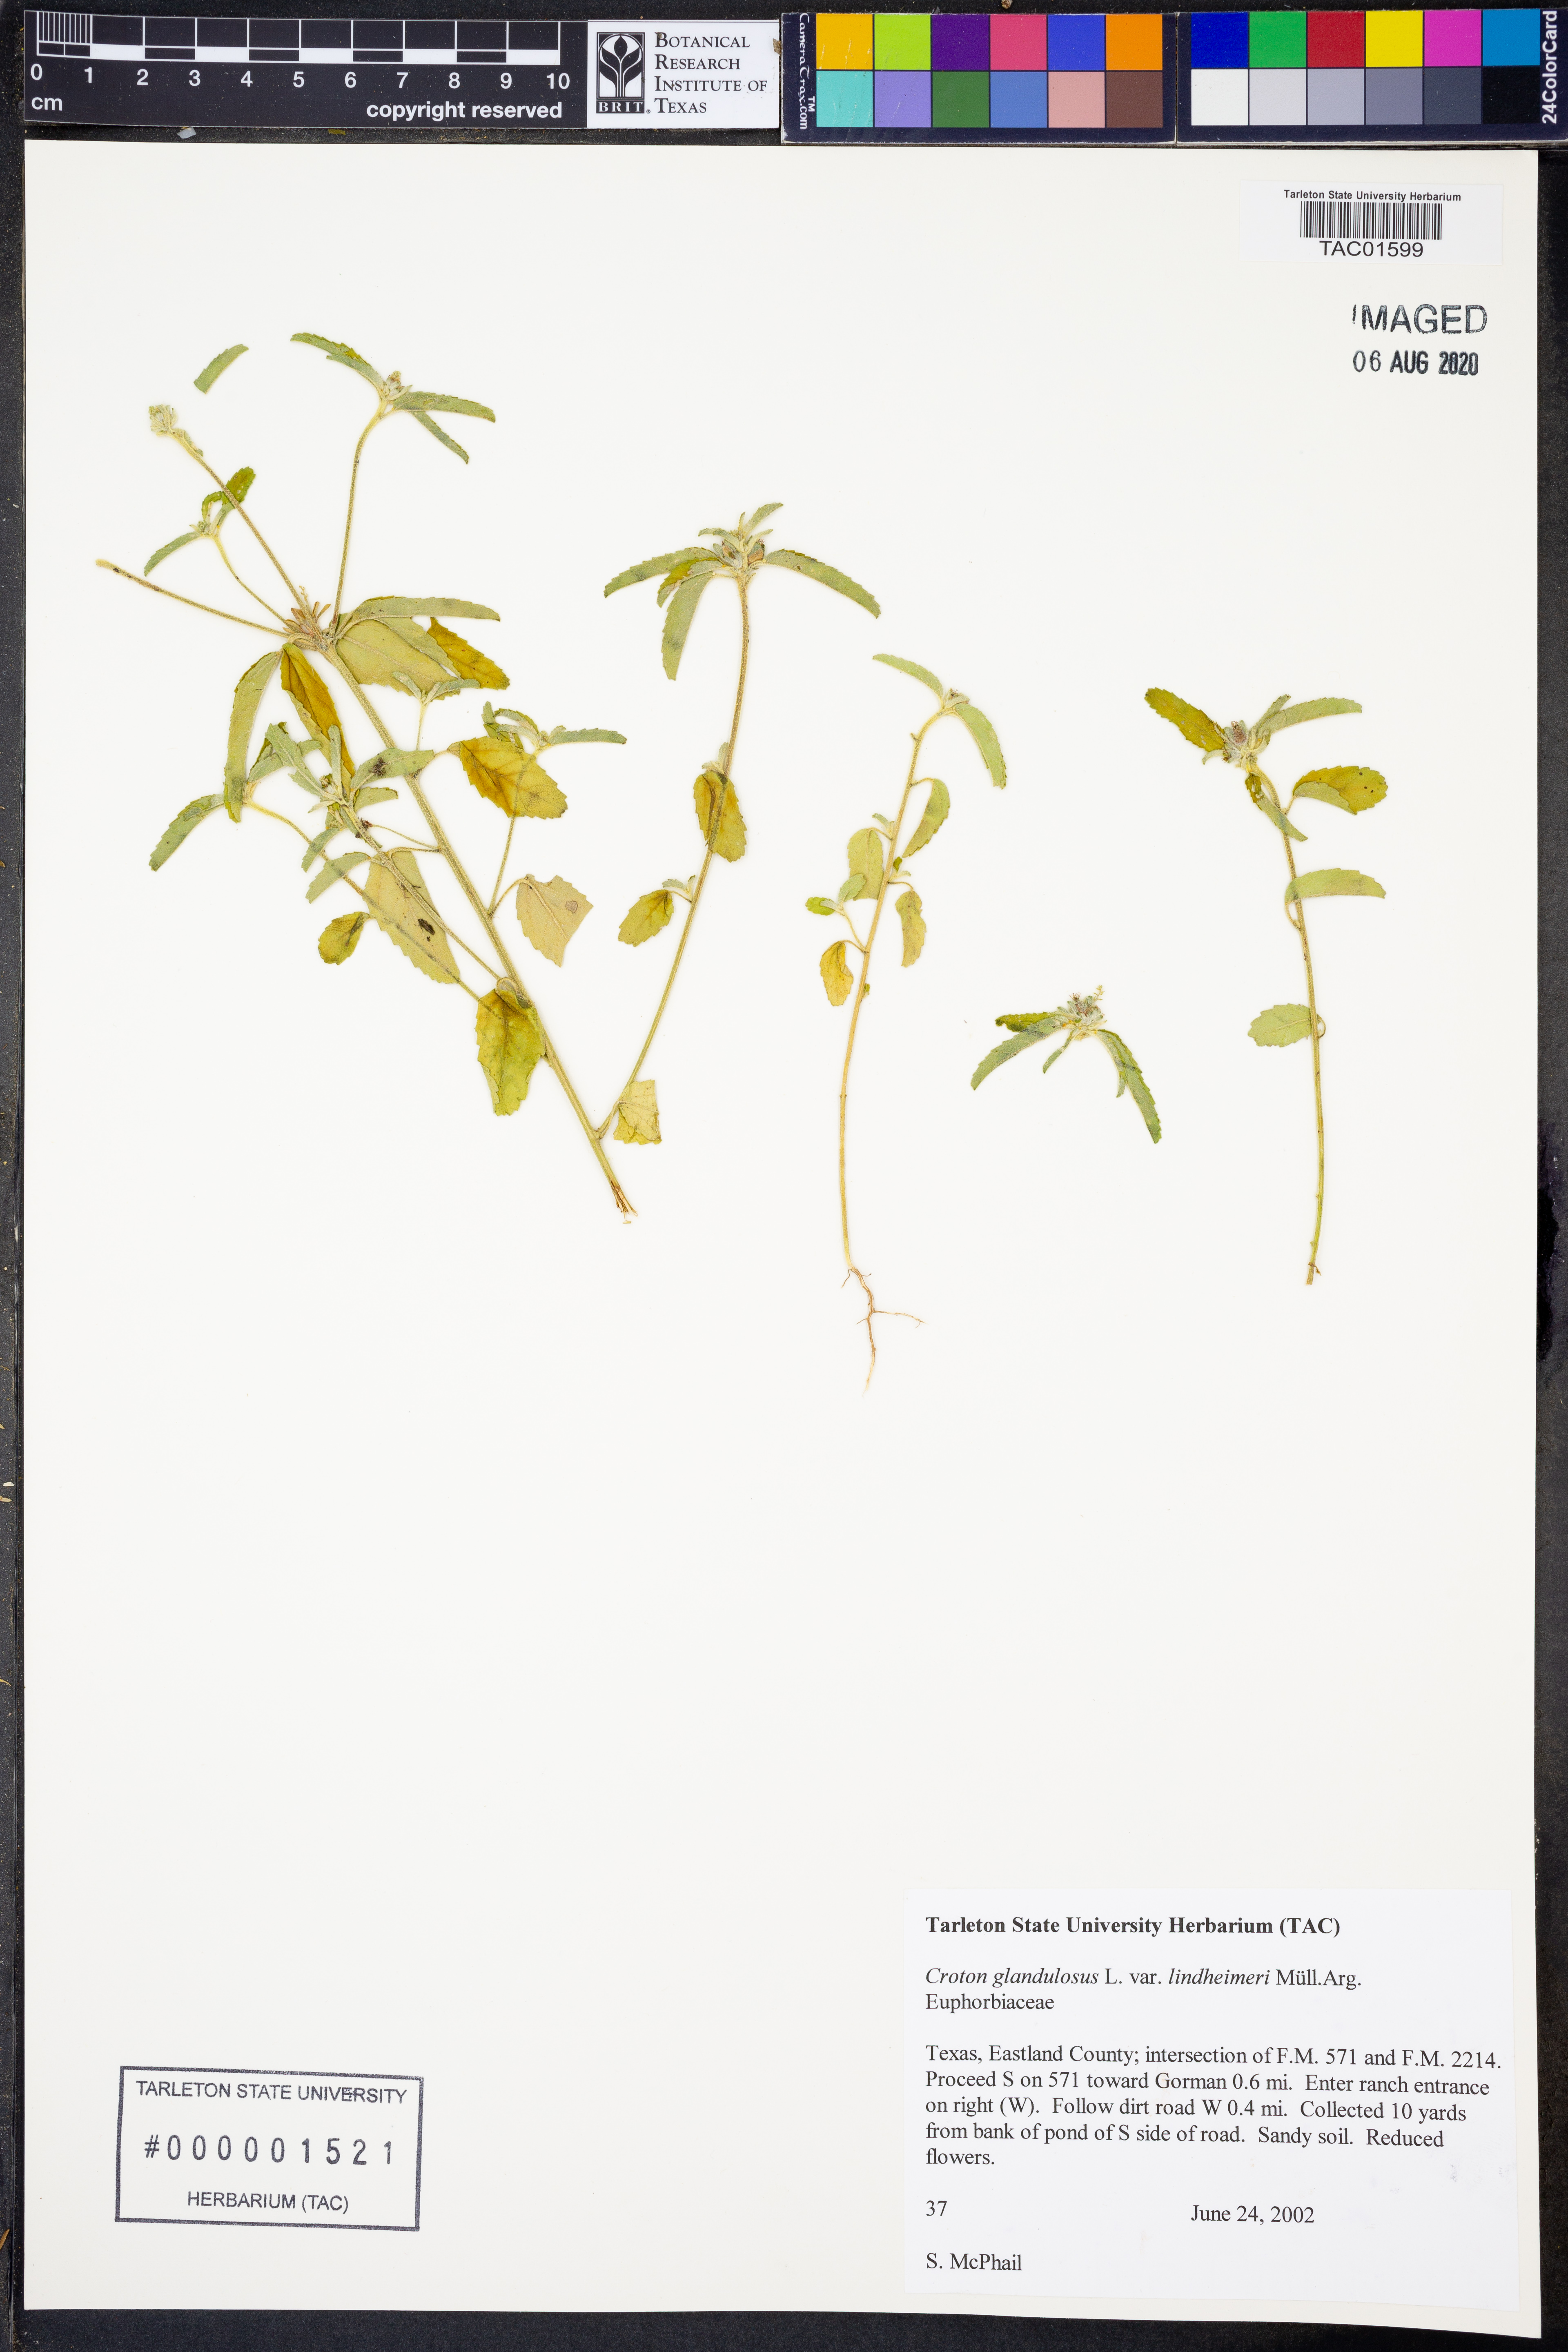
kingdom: Plantae
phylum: Tracheophyta
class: Magnoliopsida
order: Malpighiales
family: Euphorbiaceae
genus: Croton
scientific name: Croton glandulosus
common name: Tropic croton
